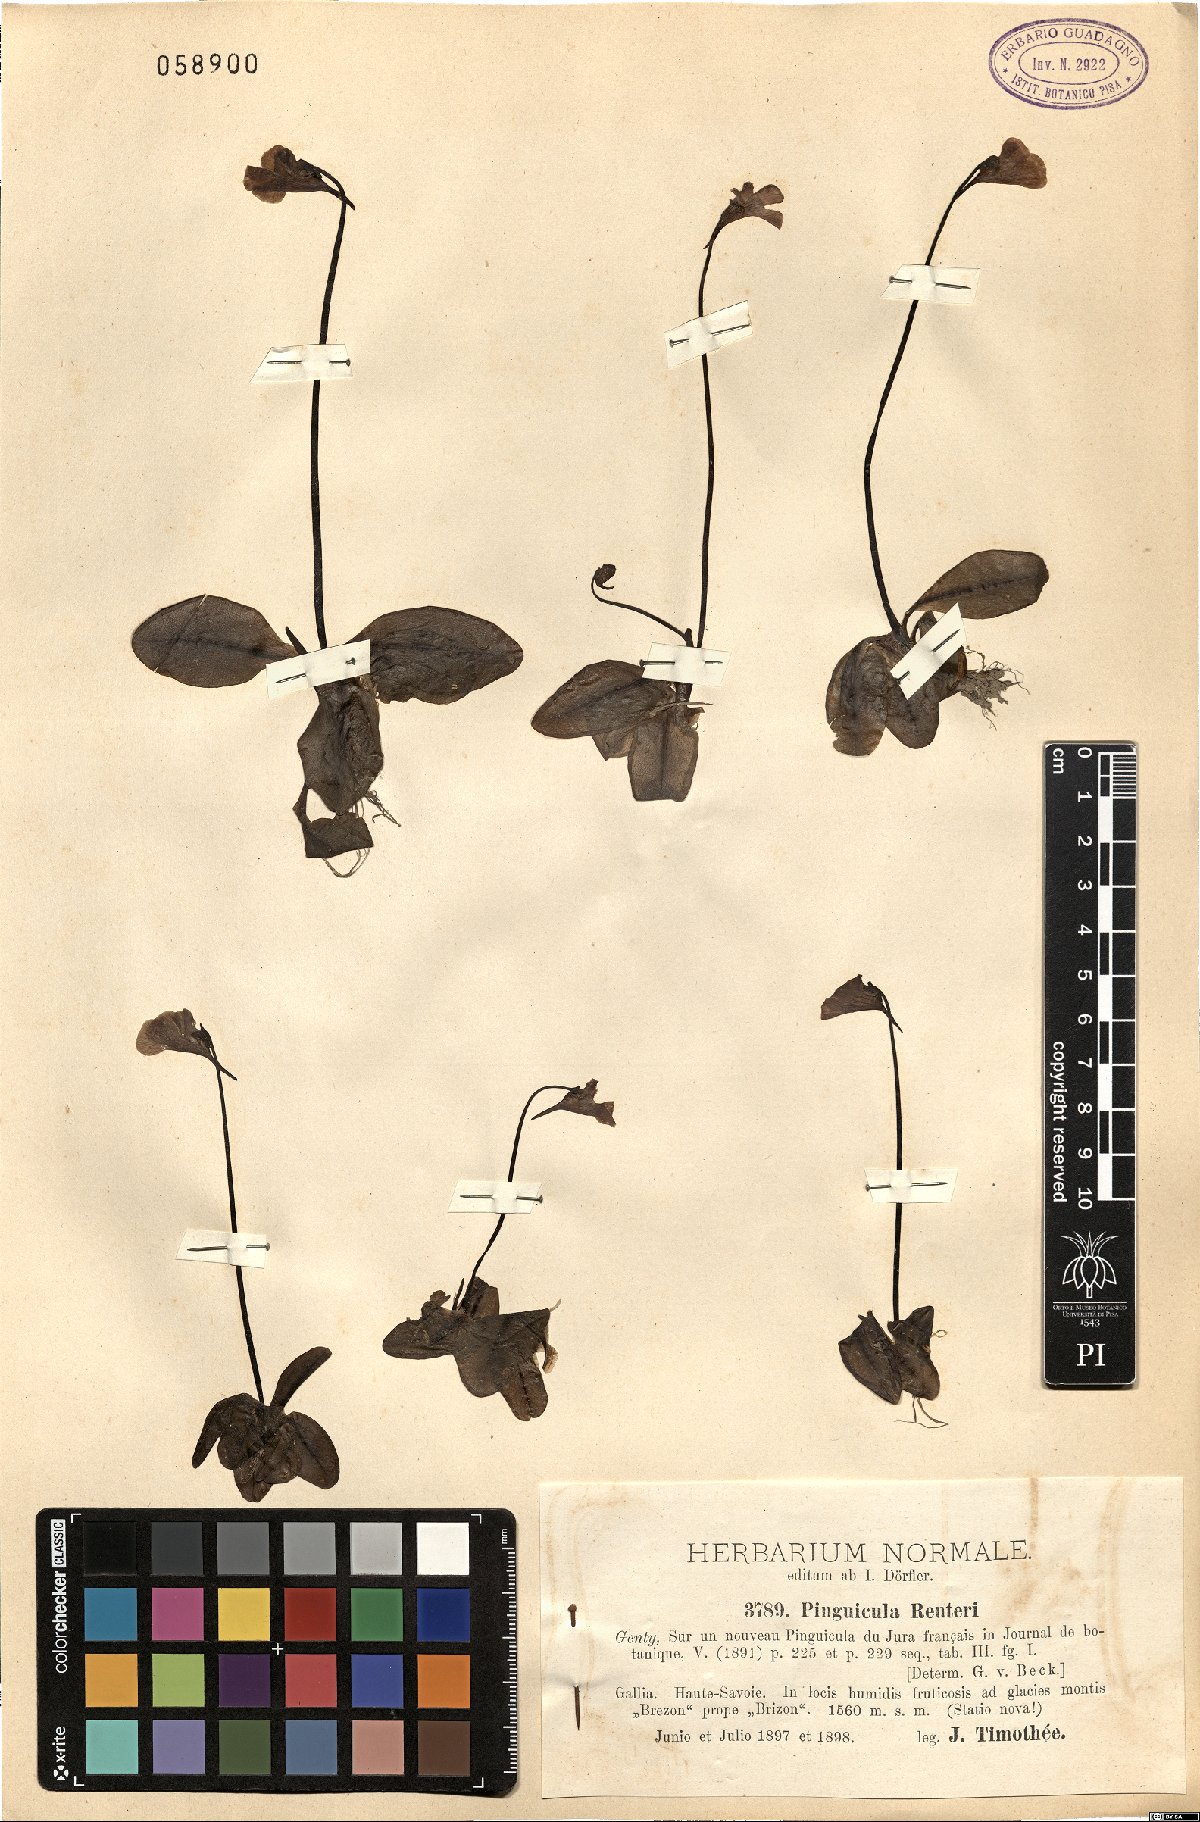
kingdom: Plantae
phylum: Tracheophyta
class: Magnoliopsida
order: Lamiales
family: Lentibulariaceae
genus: Pinguicula
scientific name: Pinguicula grandiflora
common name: Large-flowered butterwort
